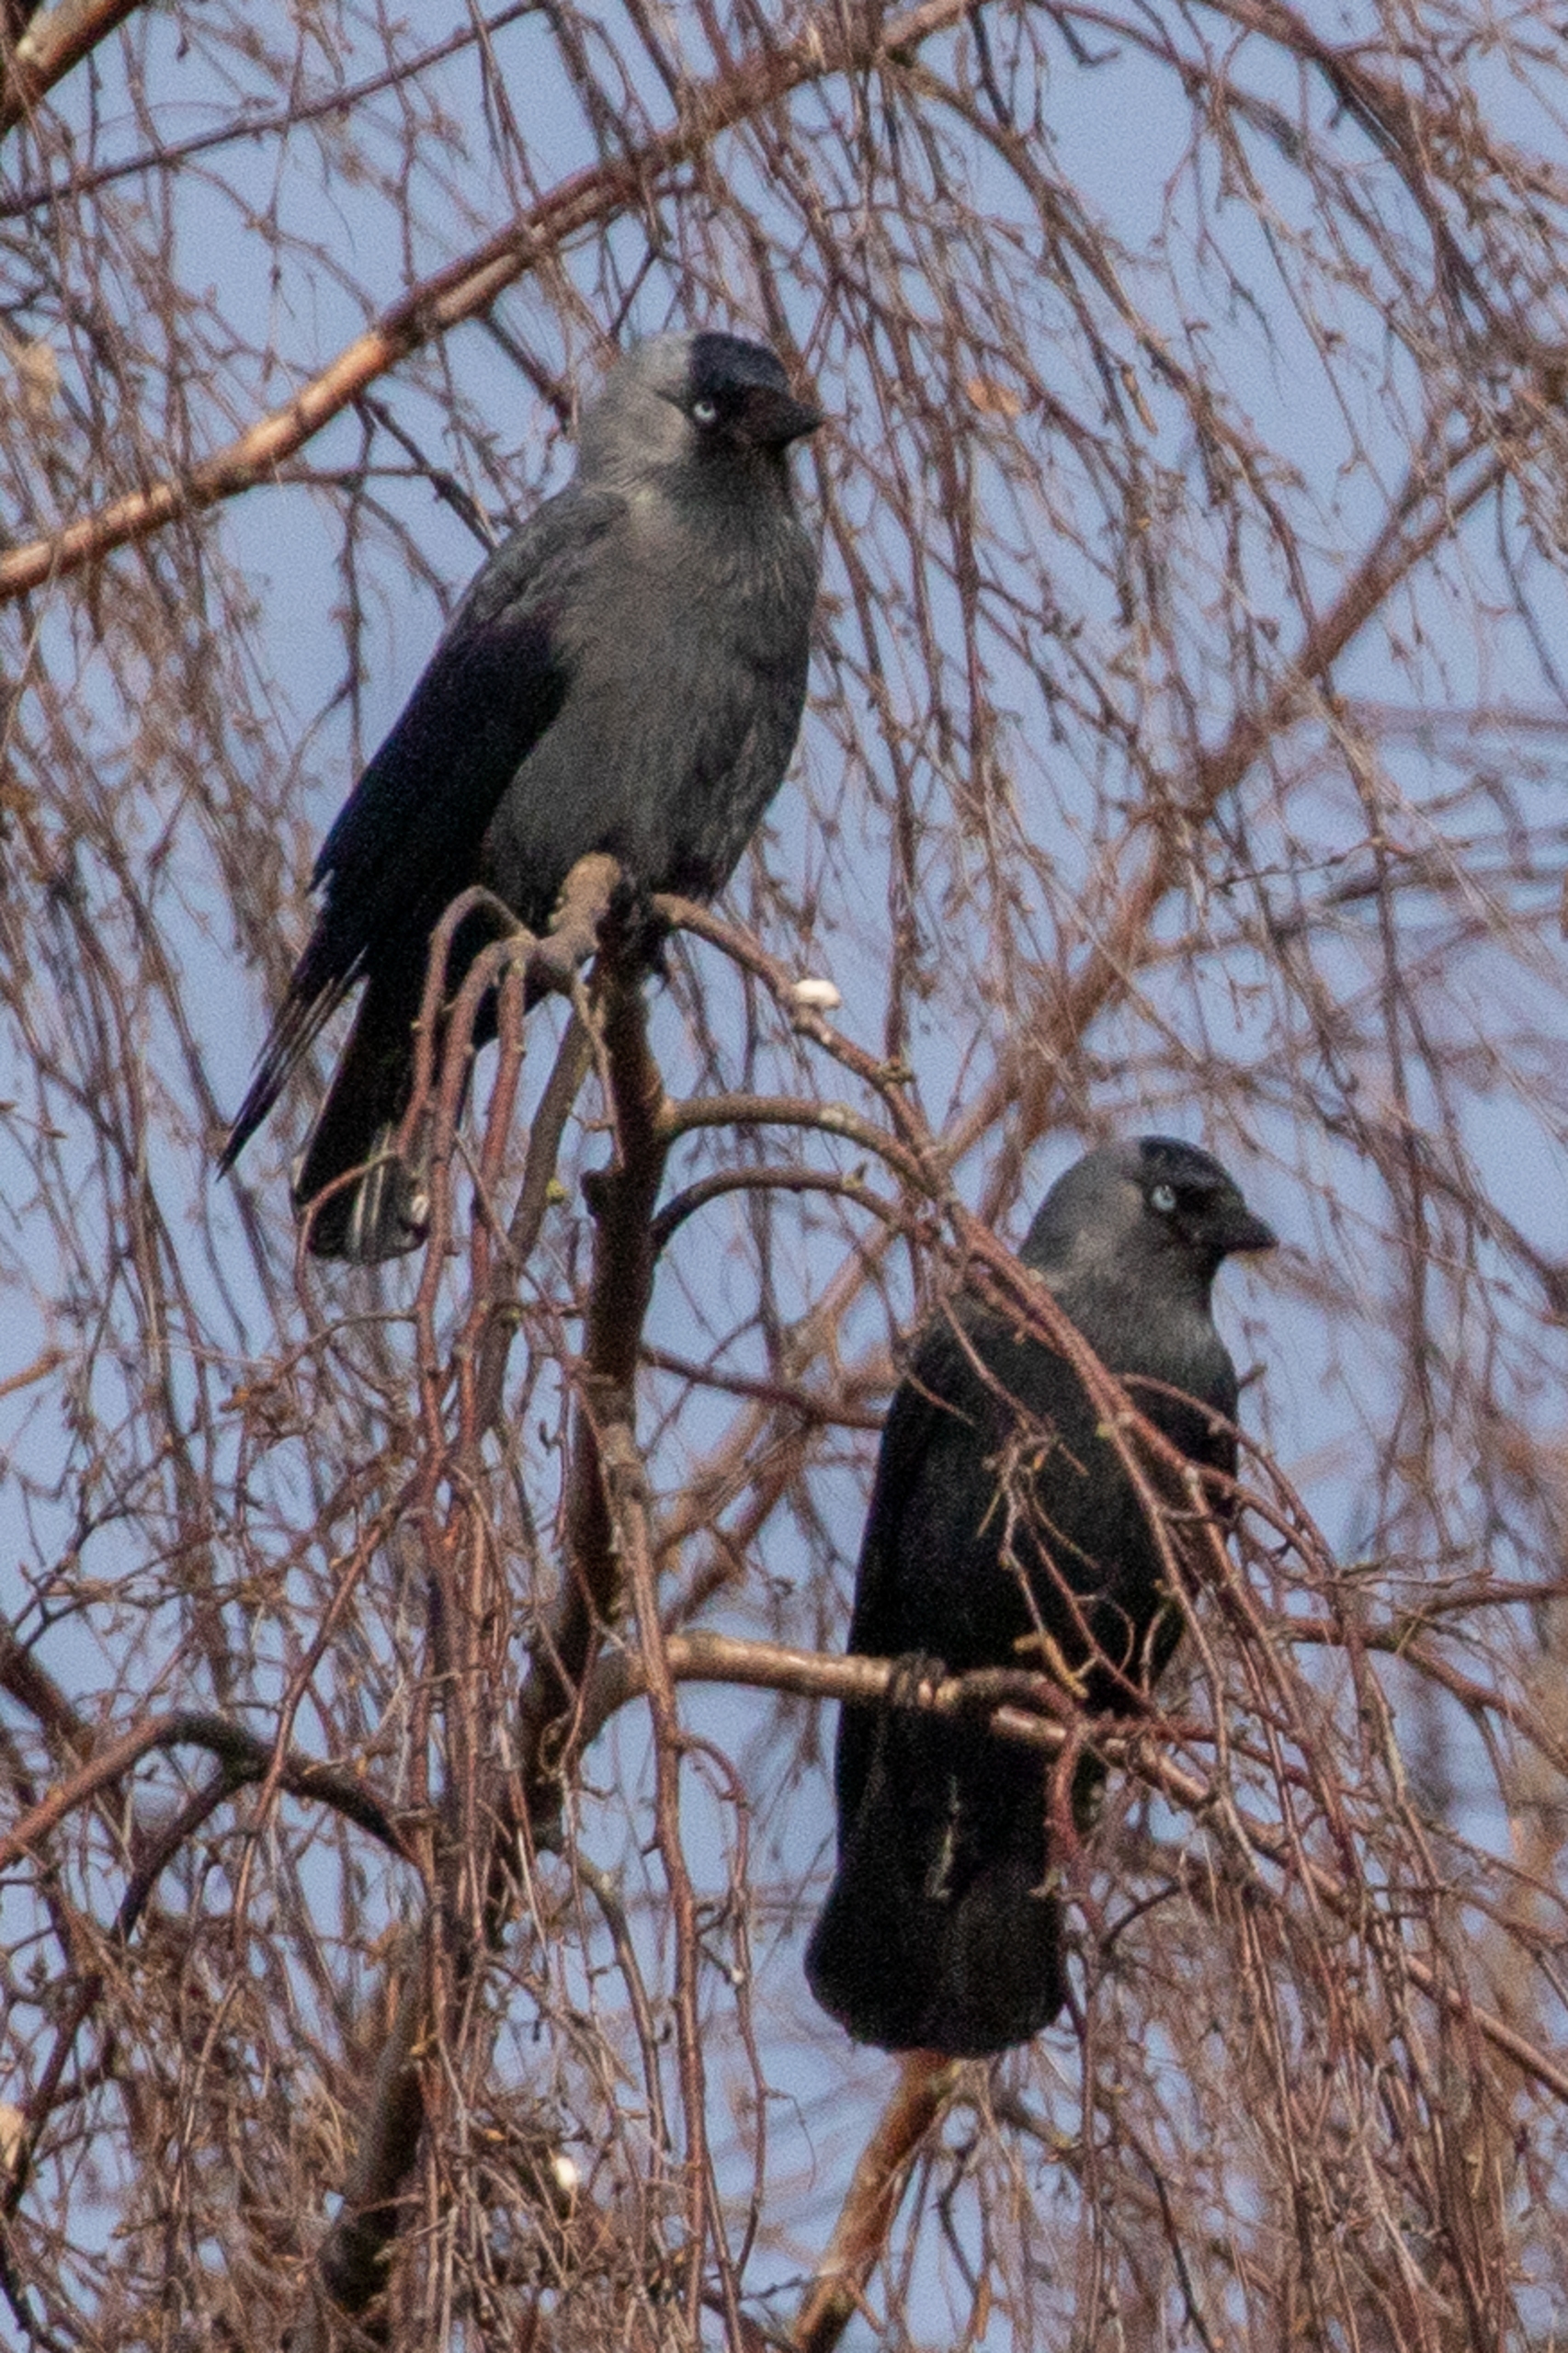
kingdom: Animalia
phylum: Chordata
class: Aves
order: Passeriformes
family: Corvidae
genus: Coloeus
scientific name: Coloeus monedula
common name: Allike
